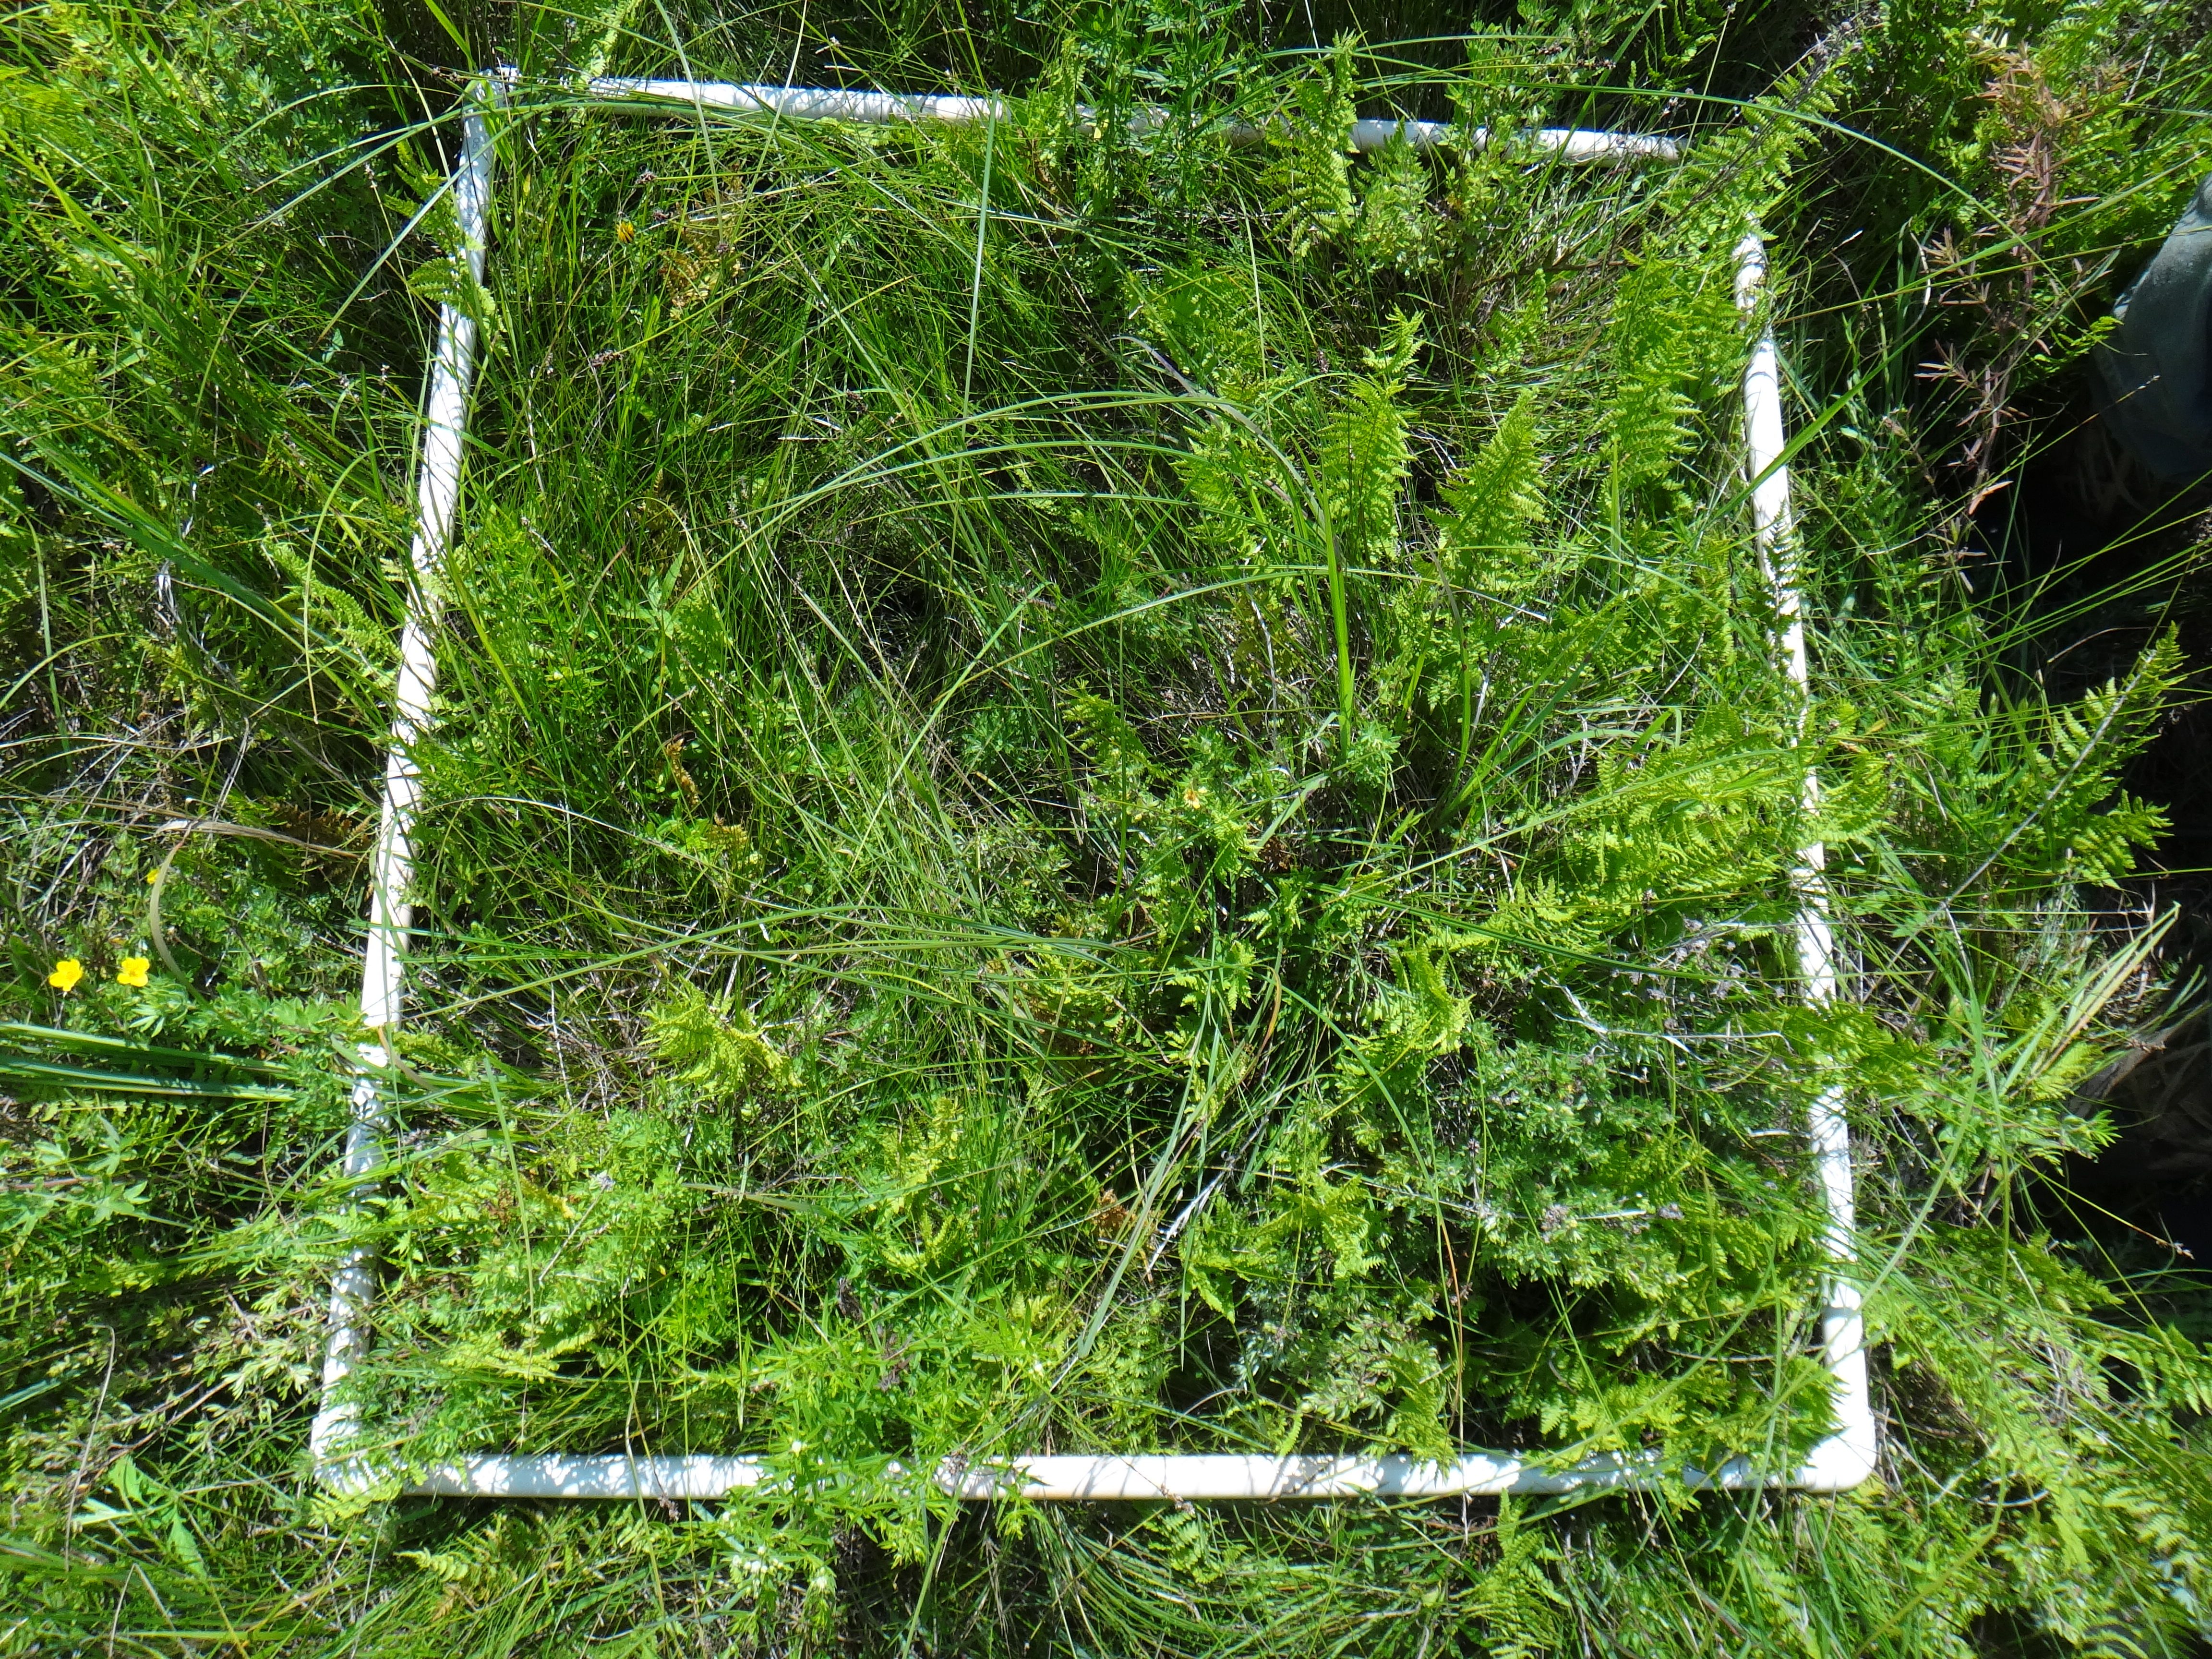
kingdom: Plantae
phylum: Tracheophyta
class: Magnoliopsida
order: Asterales
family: Asteraceae
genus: Symphyotrichum
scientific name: Symphyotrichum lanceolatum
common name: Panicled aster
